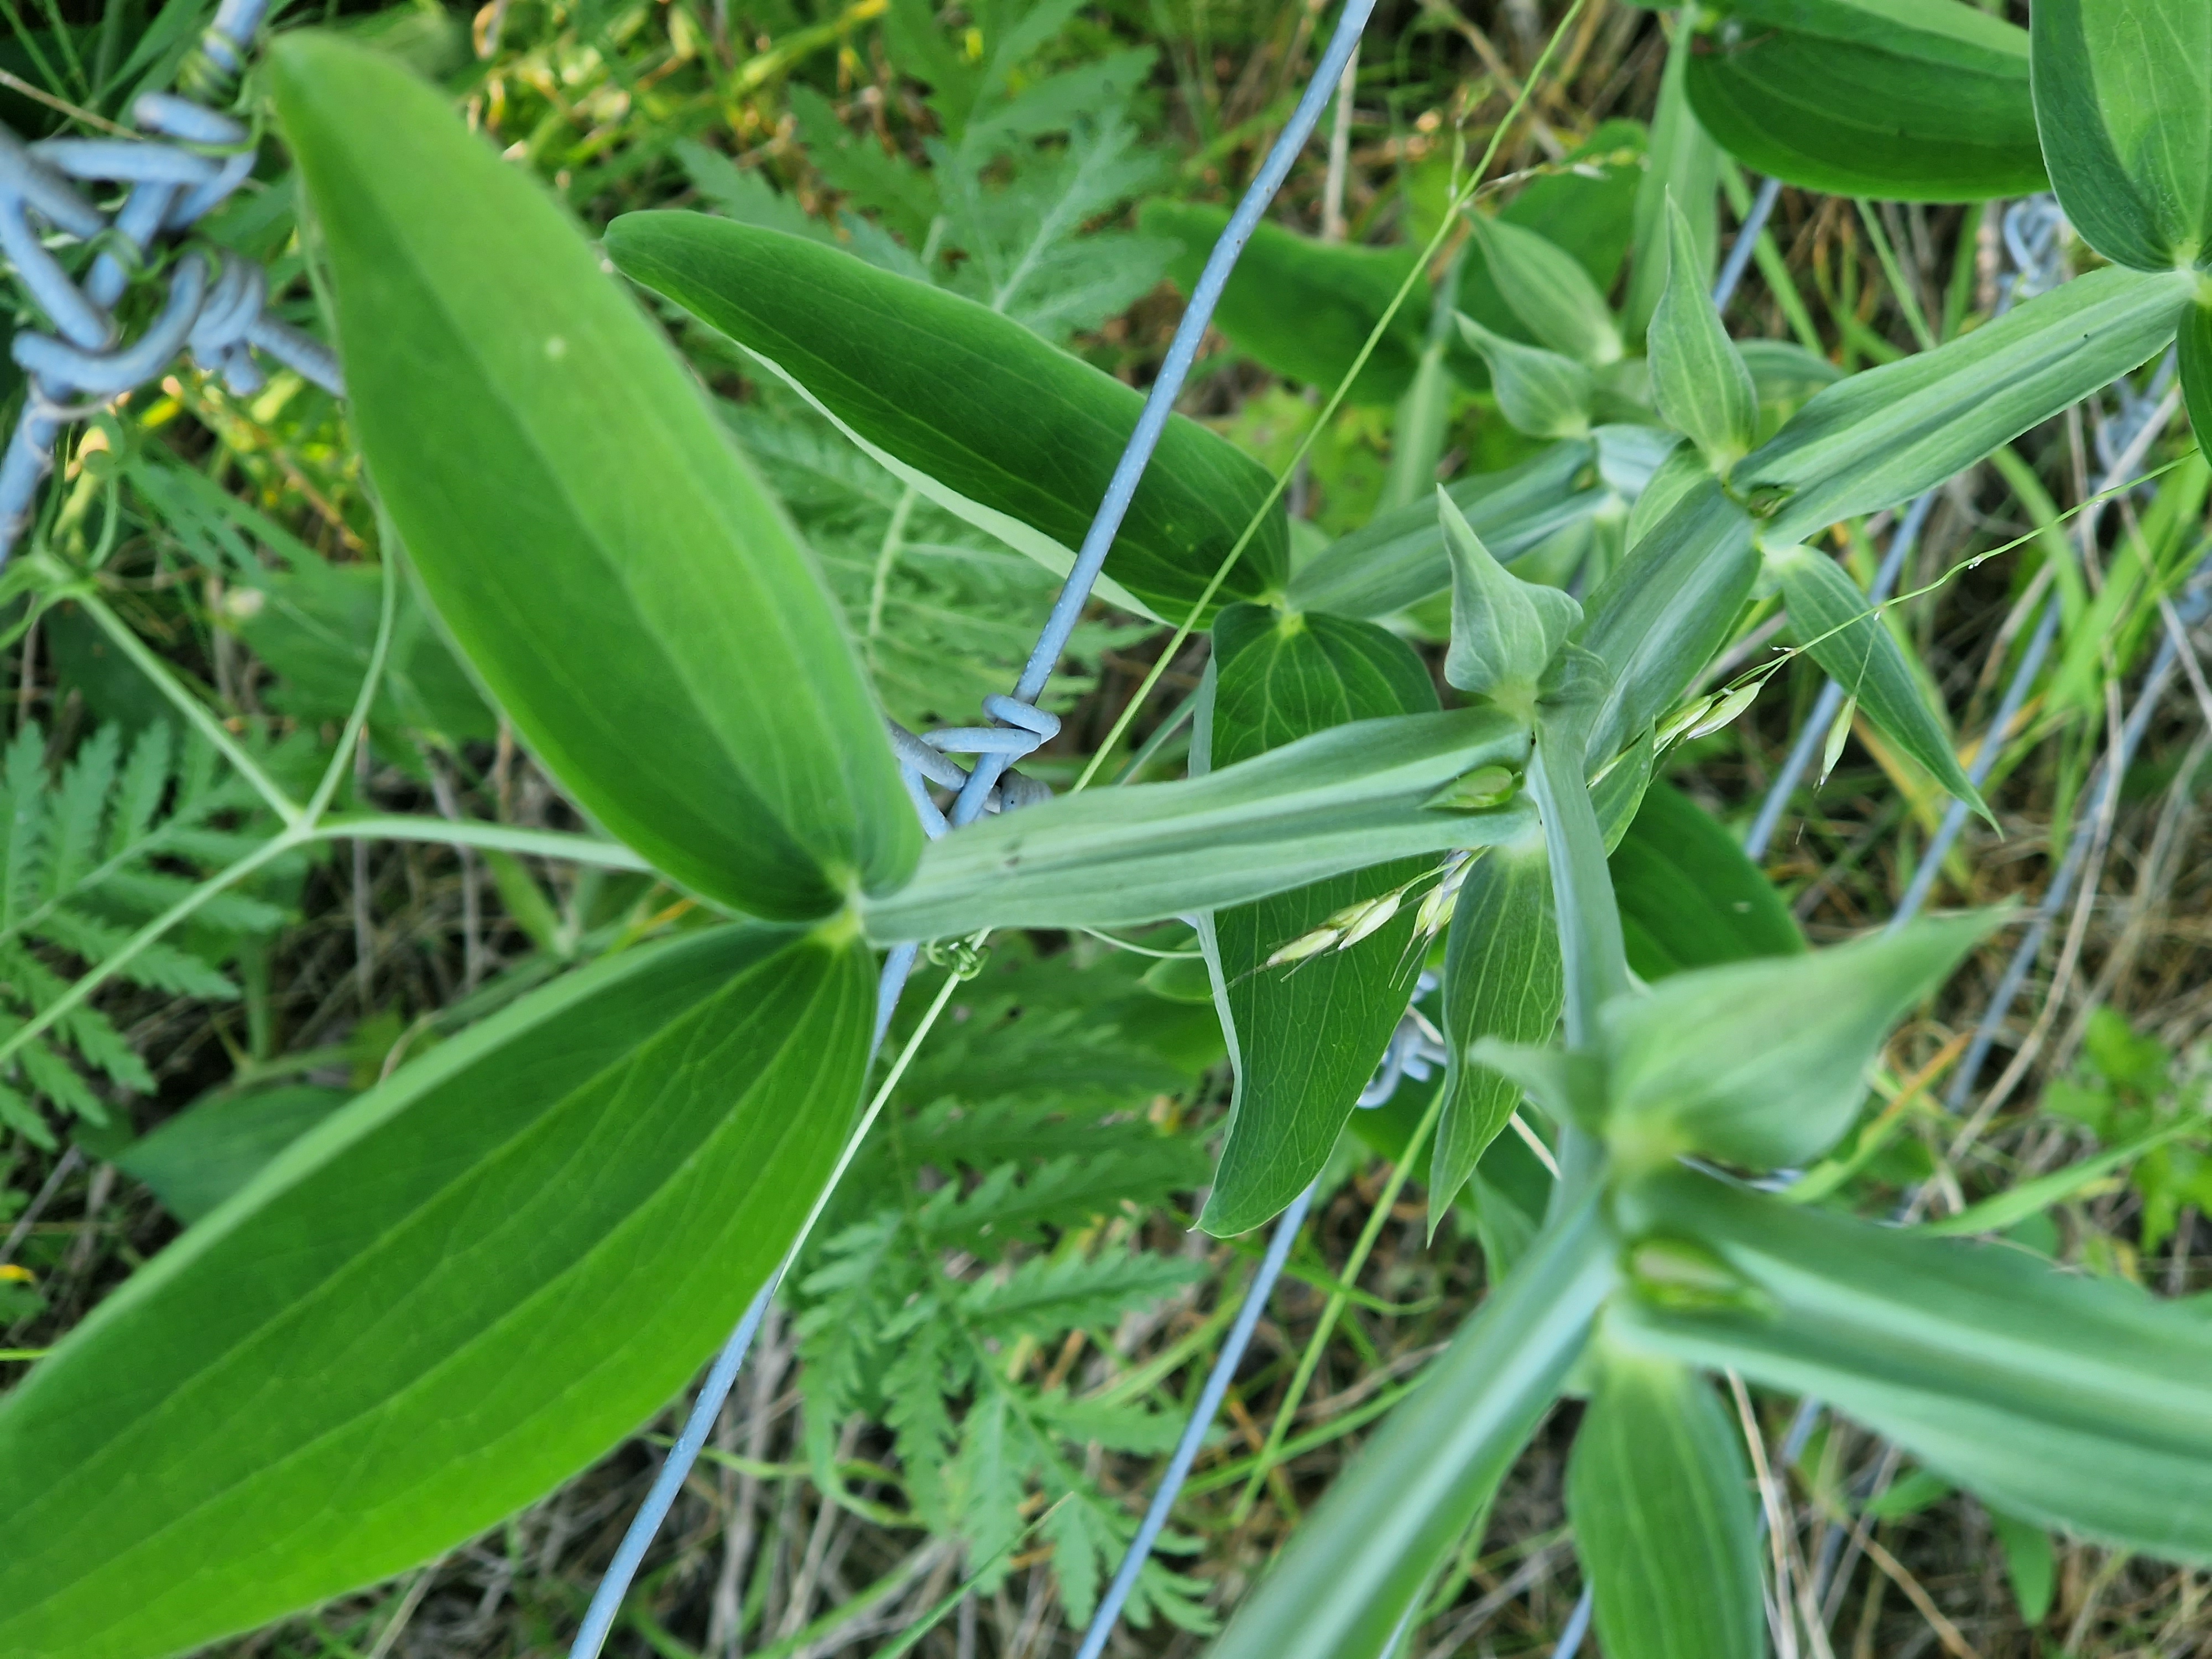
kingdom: Plantae
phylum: Tracheophyta
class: Magnoliopsida
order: Fabales
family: Fabaceae
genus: Lathyrus
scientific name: Lathyrus latifolius
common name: Flerårig ærteblomst
